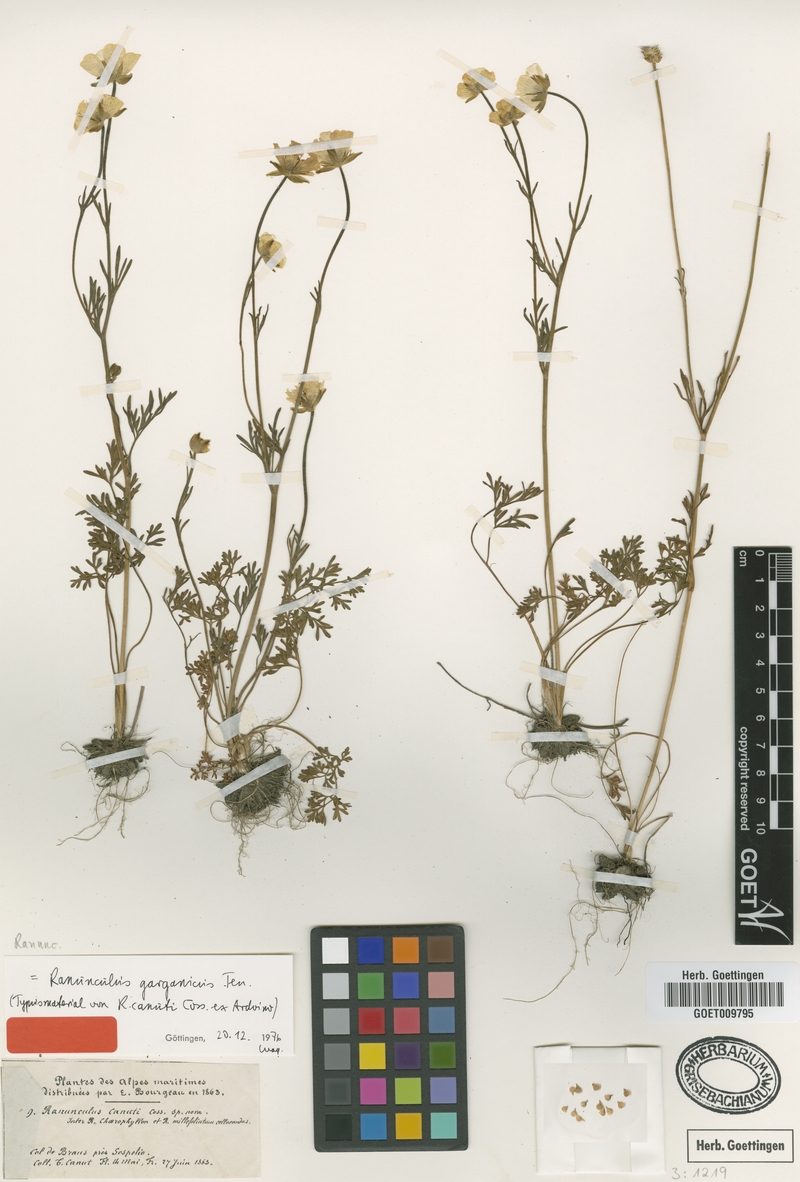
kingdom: Plantae
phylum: Tracheophyta
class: Magnoliopsida
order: Ranunculales
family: Ranunculaceae
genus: Ranunculus
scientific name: Ranunculus garganicus
